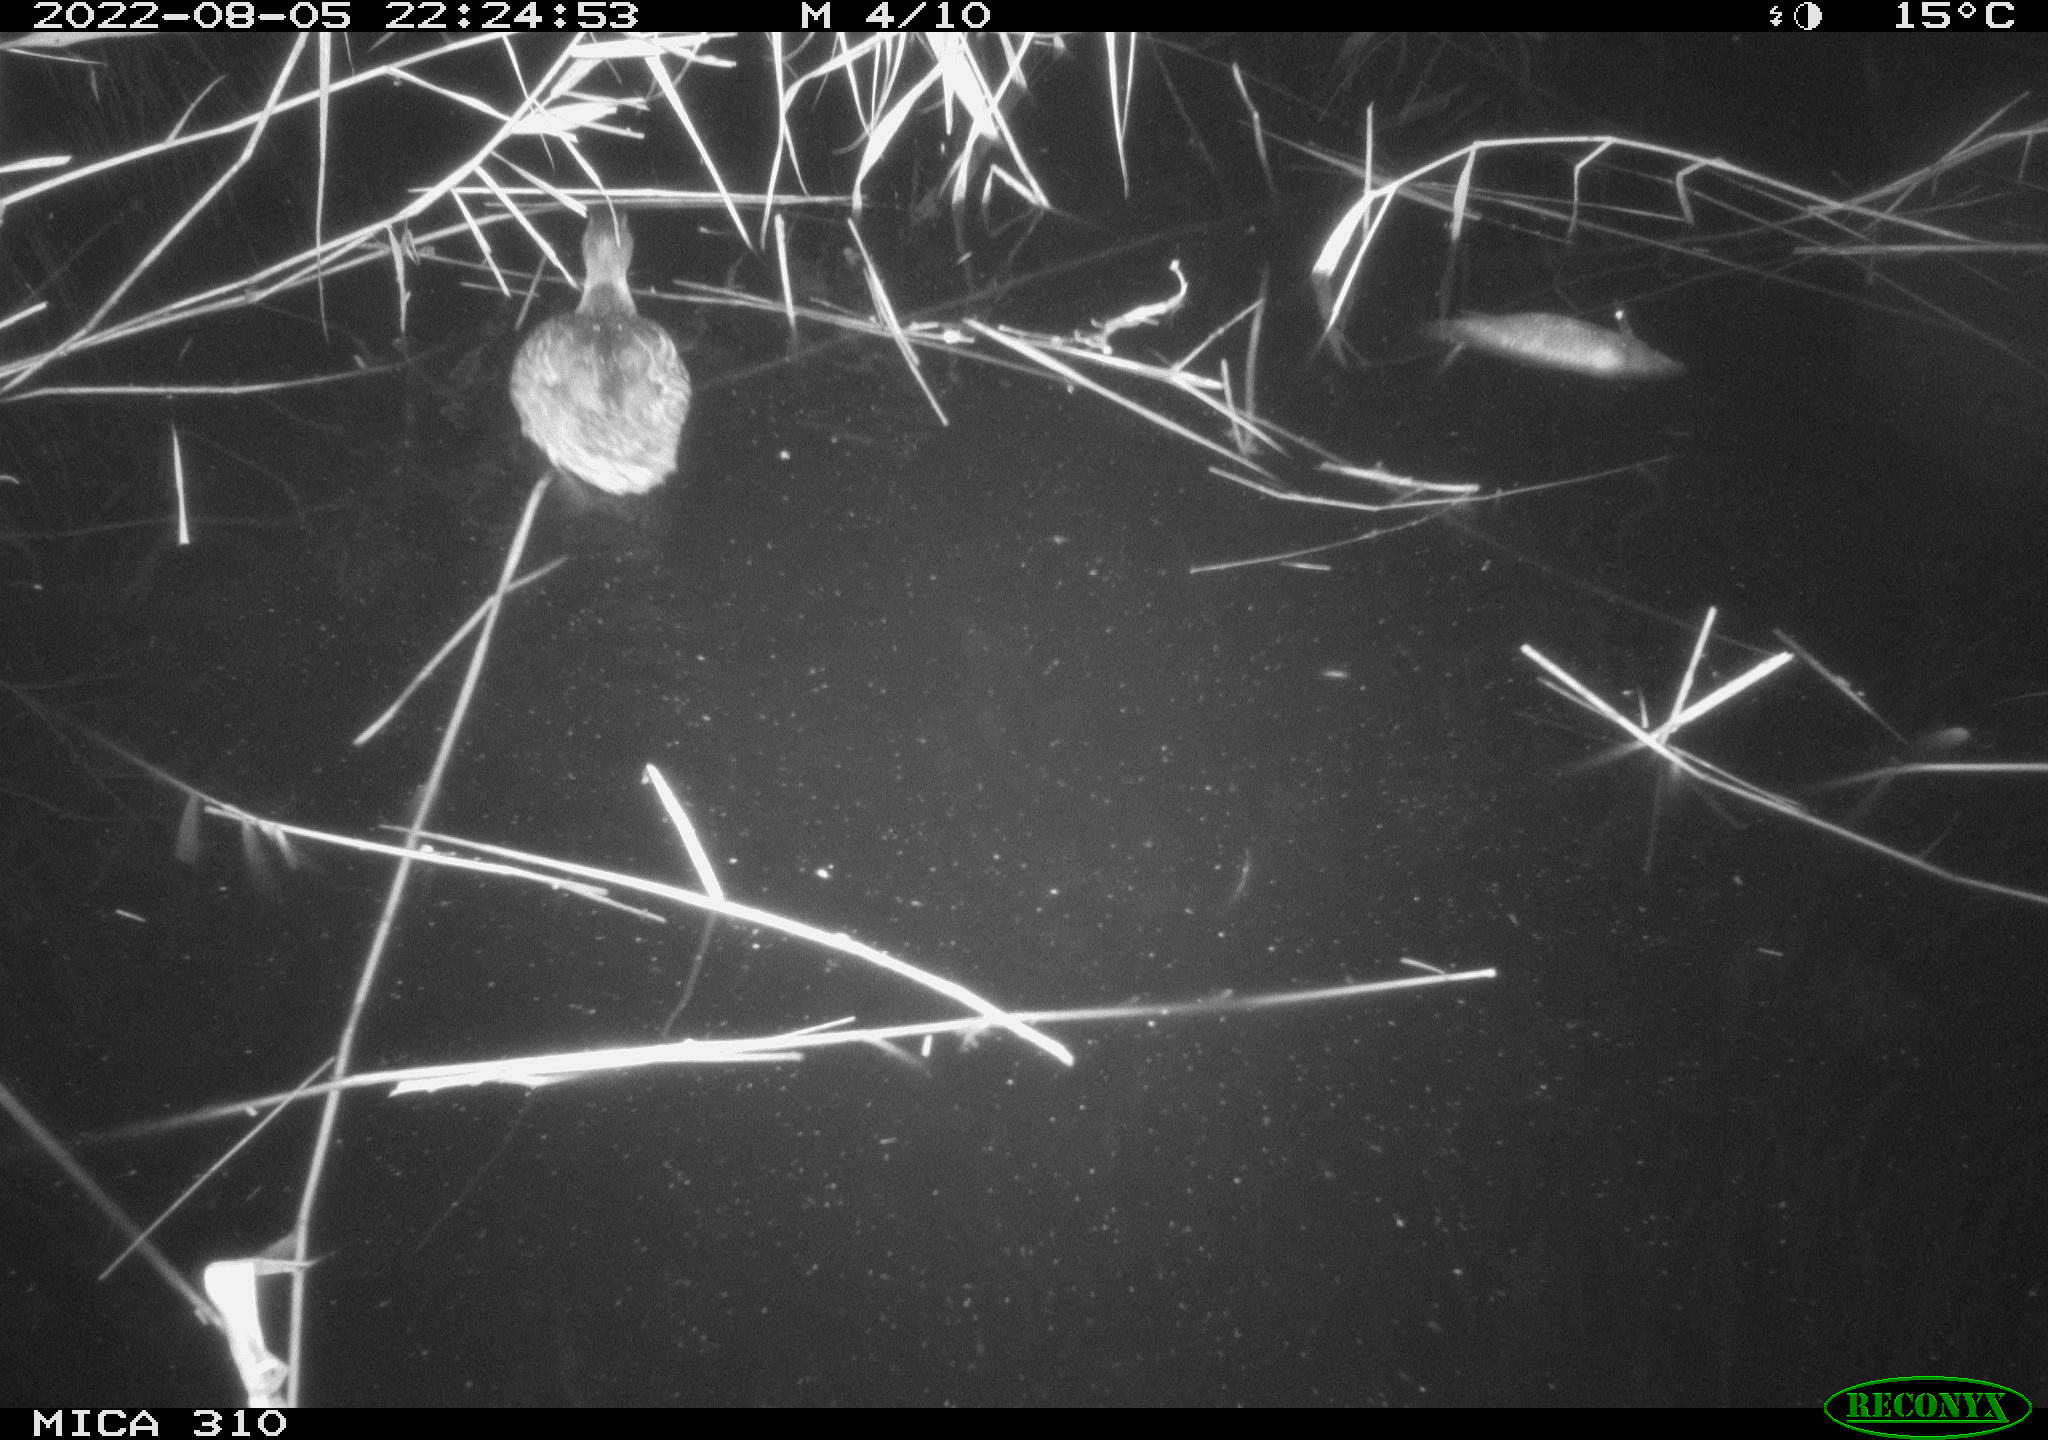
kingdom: Animalia
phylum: Chordata
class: Aves
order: Anseriformes
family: Anatidae
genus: Anas
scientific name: Anas platyrhynchos
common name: Mallard
